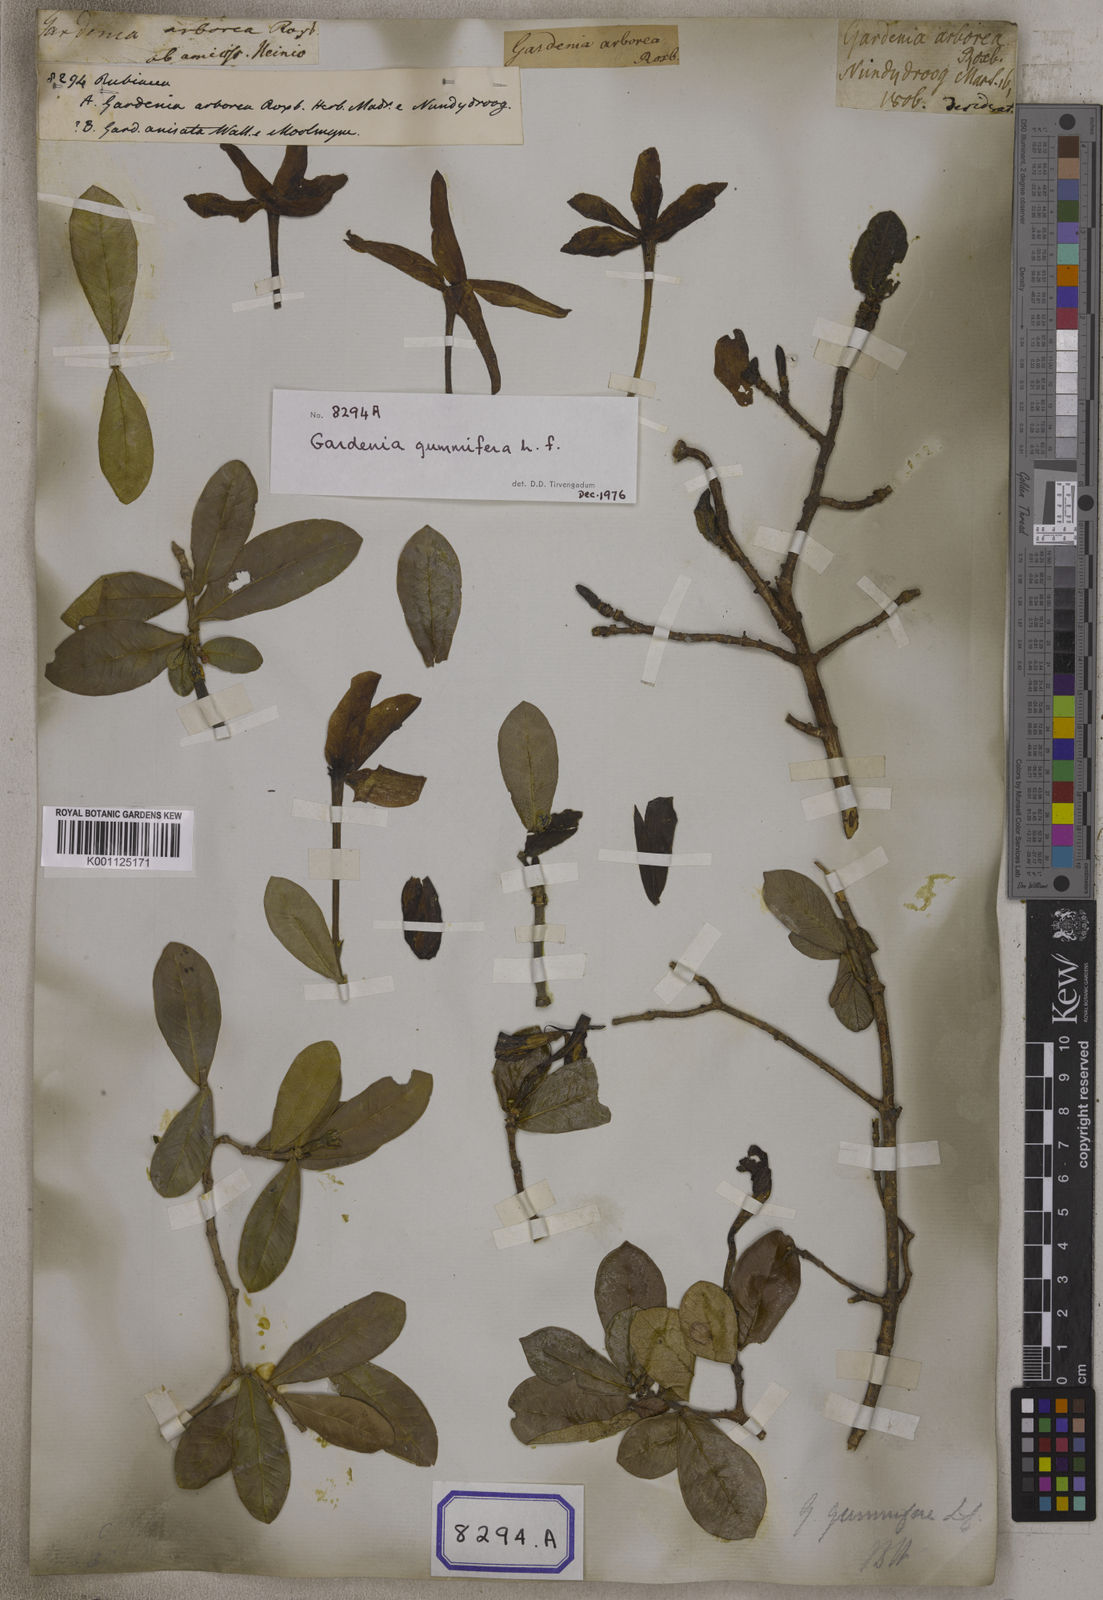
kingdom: Plantae
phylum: Tracheophyta
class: Magnoliopsida
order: Gentianales
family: Rubiaceae
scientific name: Rubiaceae
